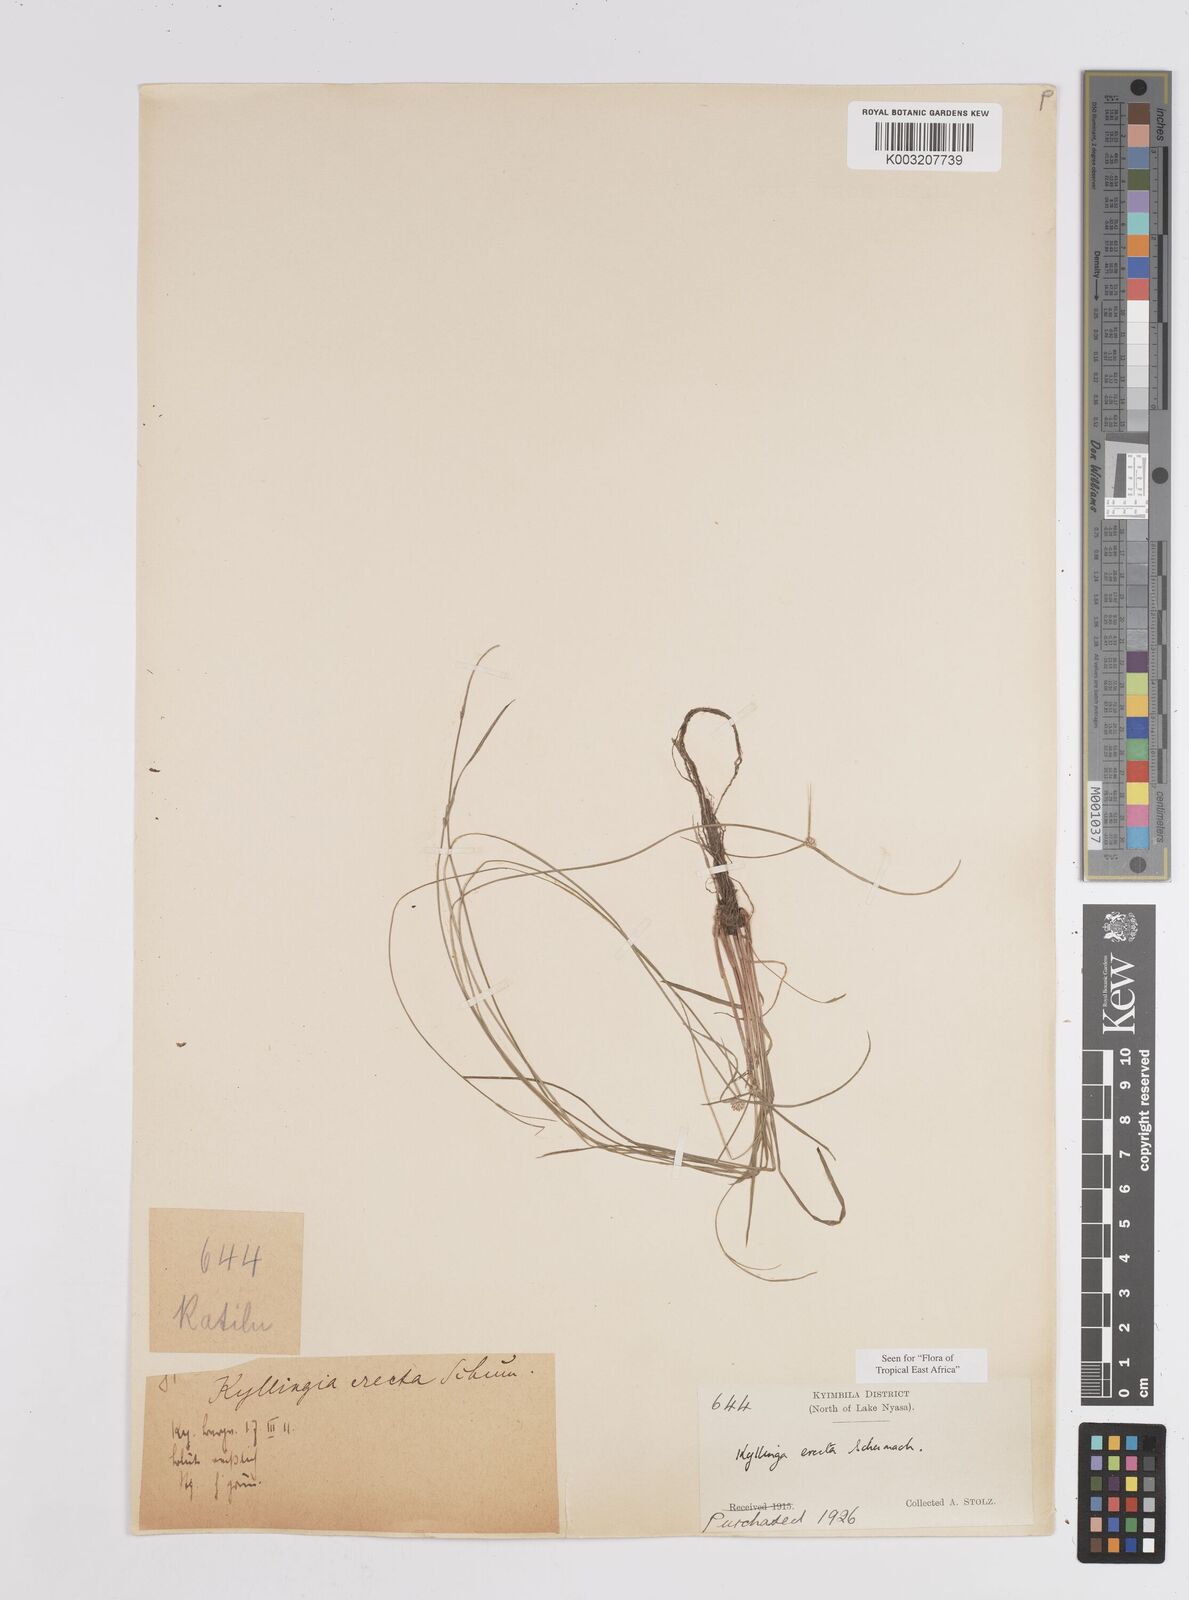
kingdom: Plantae
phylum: Tracheophyta
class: Liliopsida
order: Poales
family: Cyperaceae
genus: Cyperus
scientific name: Cyperus erectus
